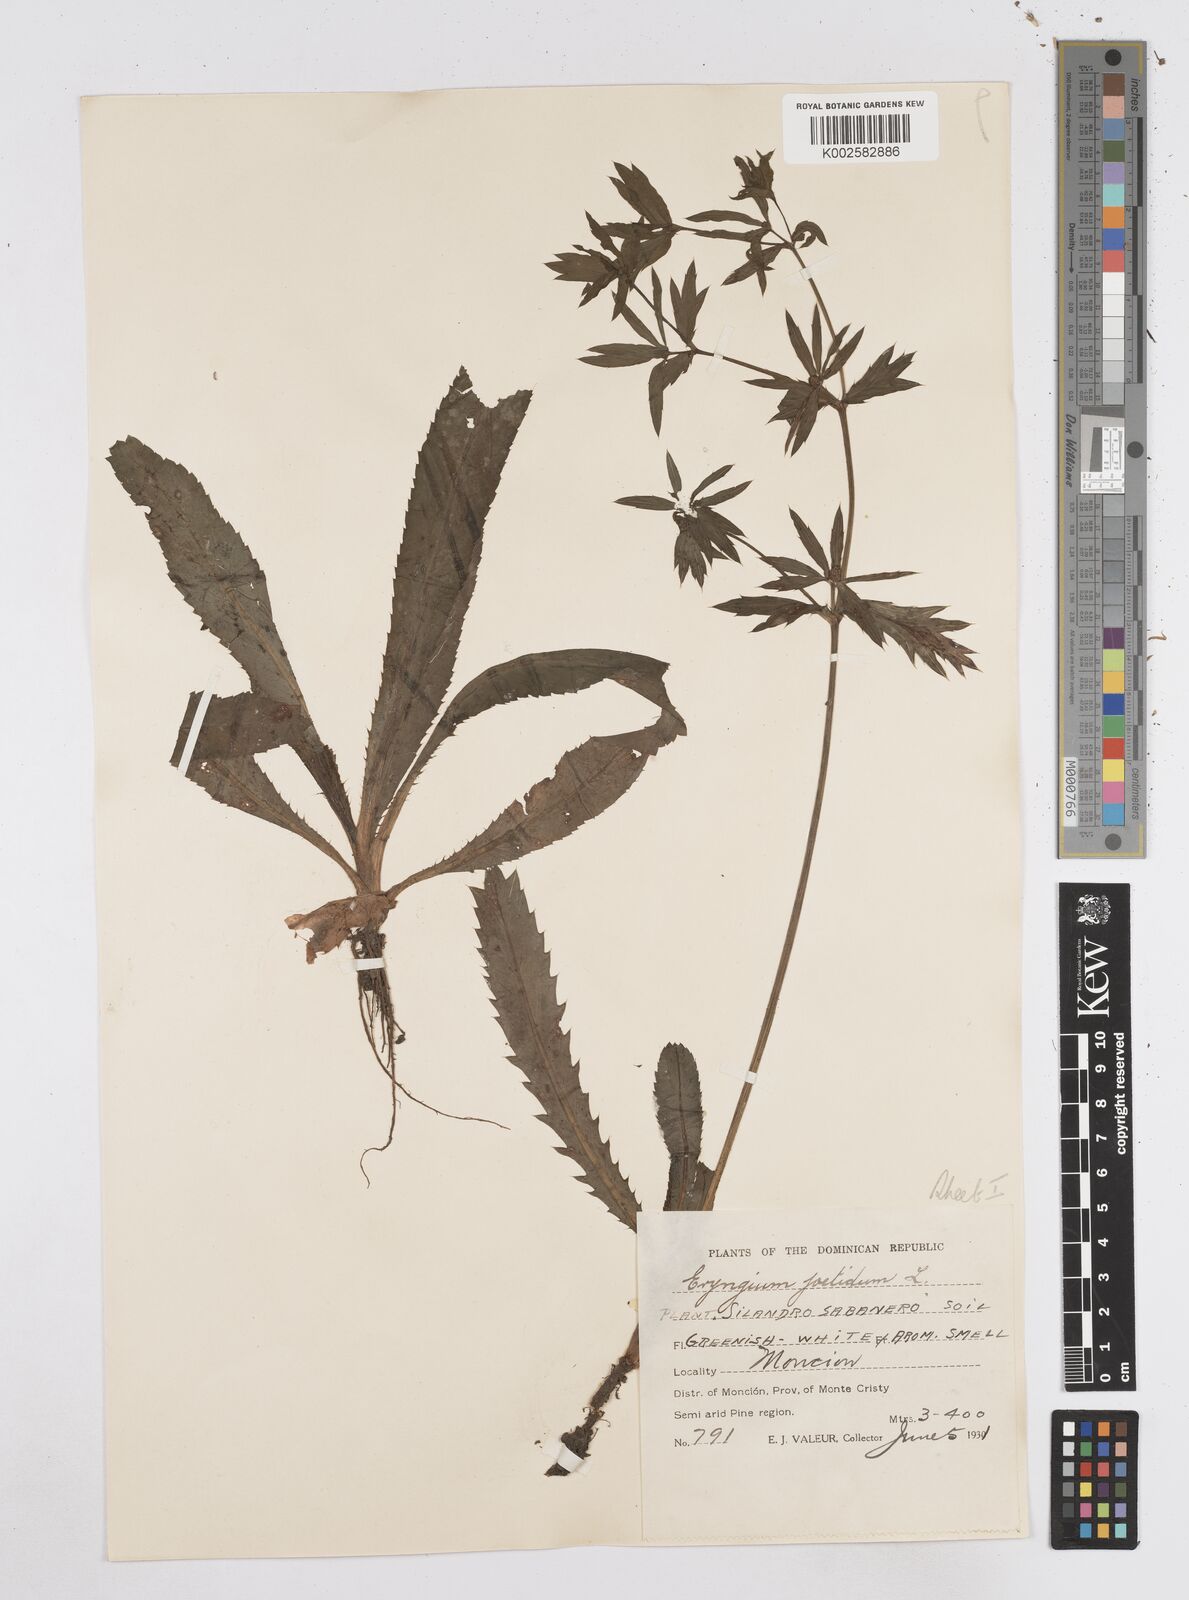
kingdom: Plantae
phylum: Tracheophyta
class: Magnoliopsida
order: Apiales
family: Apiaceae
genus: Eryngium
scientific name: Eryngium foetidum
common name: Fitweed
